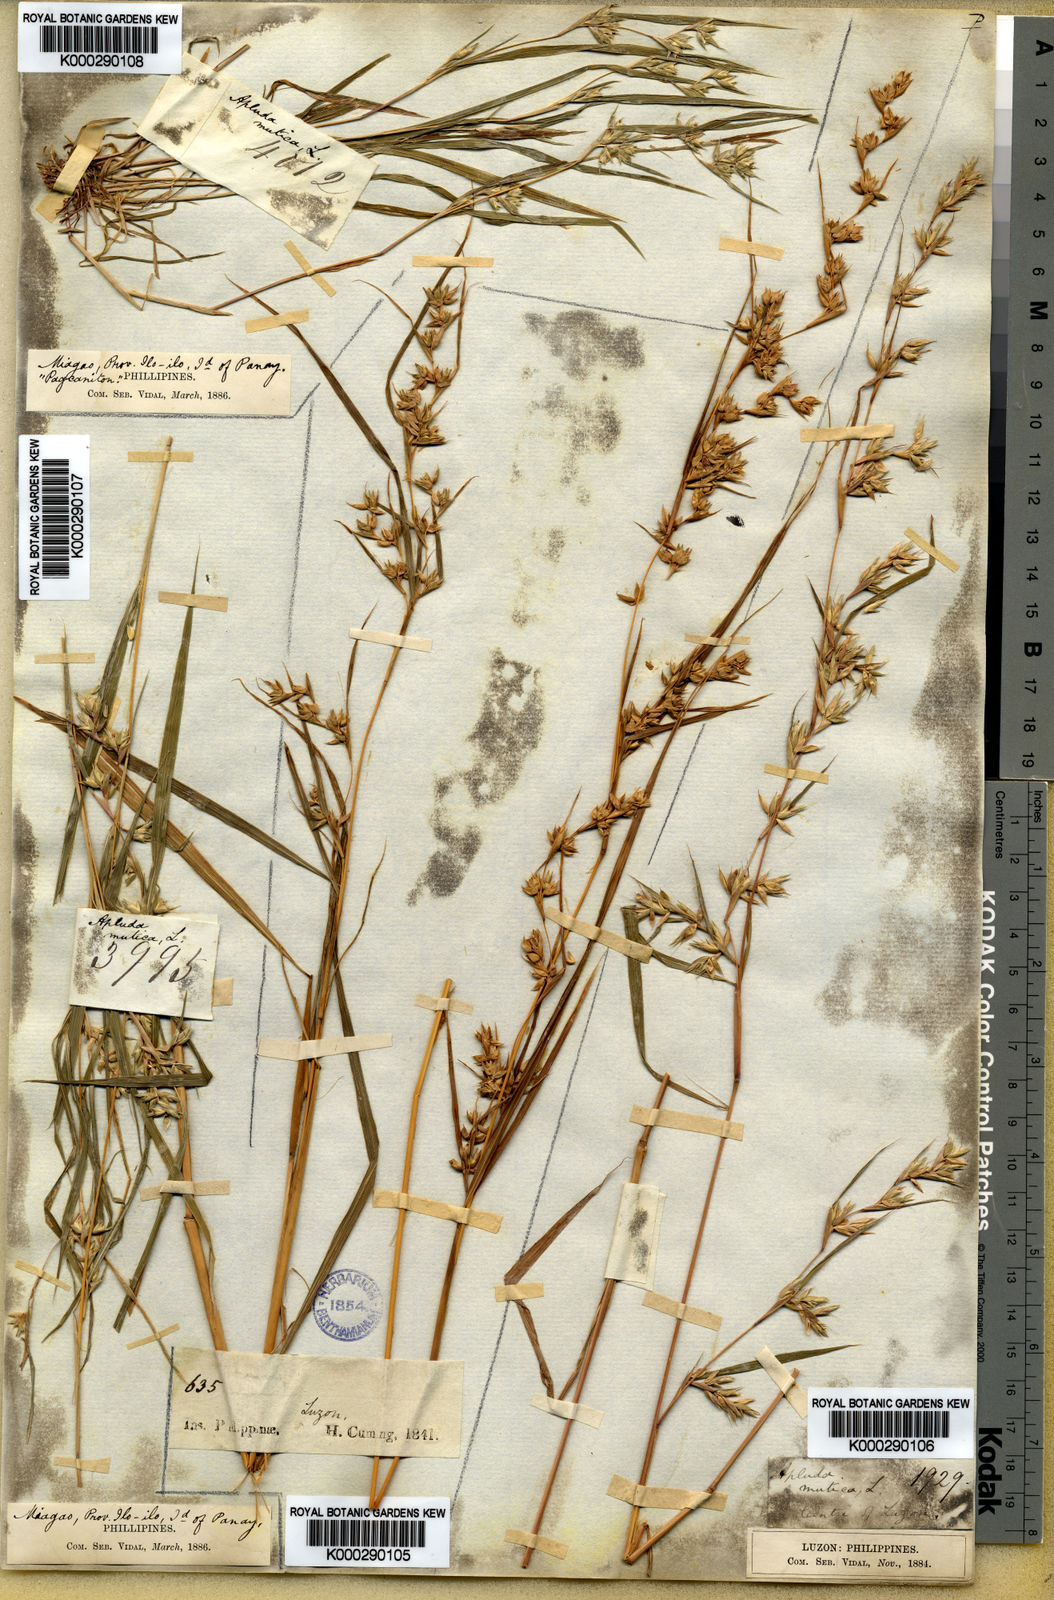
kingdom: Plantae
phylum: Tracheophyta
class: Liliopsida
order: Poales
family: Poaceae
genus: Apluda
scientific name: Apluda mutica
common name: Mauritian grass
